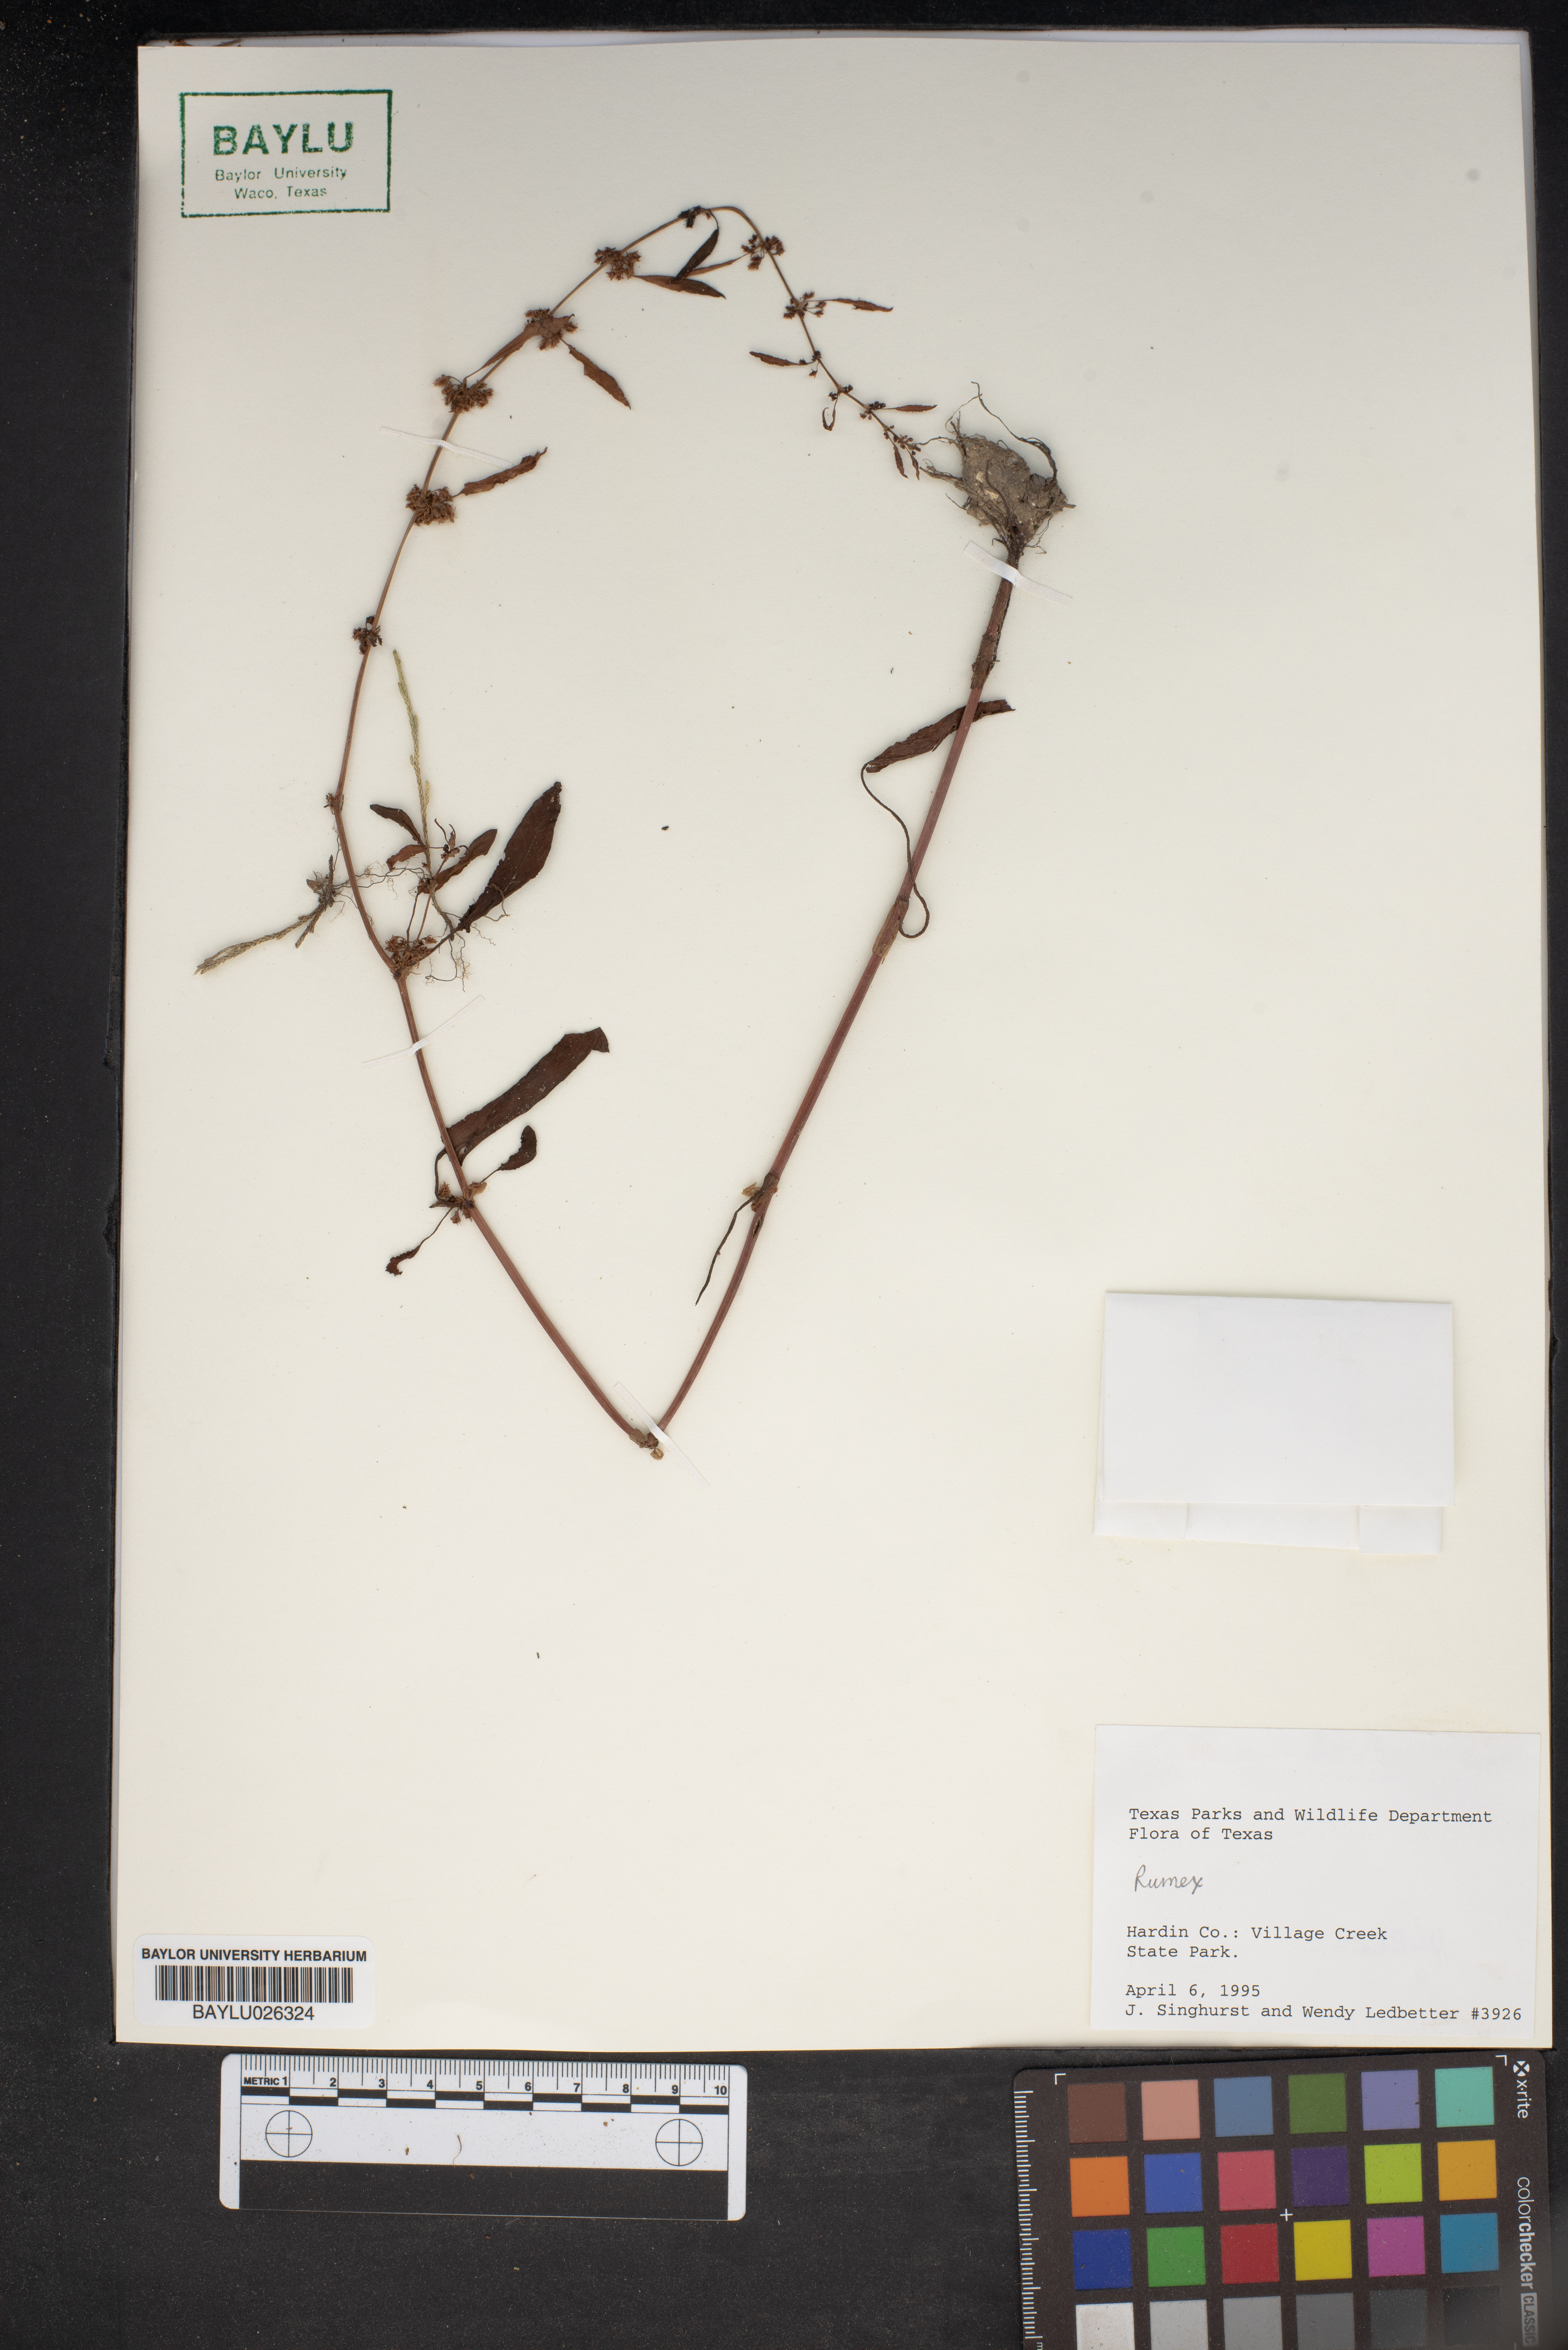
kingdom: Plantae
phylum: Tracheophyta
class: Magnoliopsida
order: Caryophyllales
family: Polygonaceae
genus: Rumex
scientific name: Rumex
